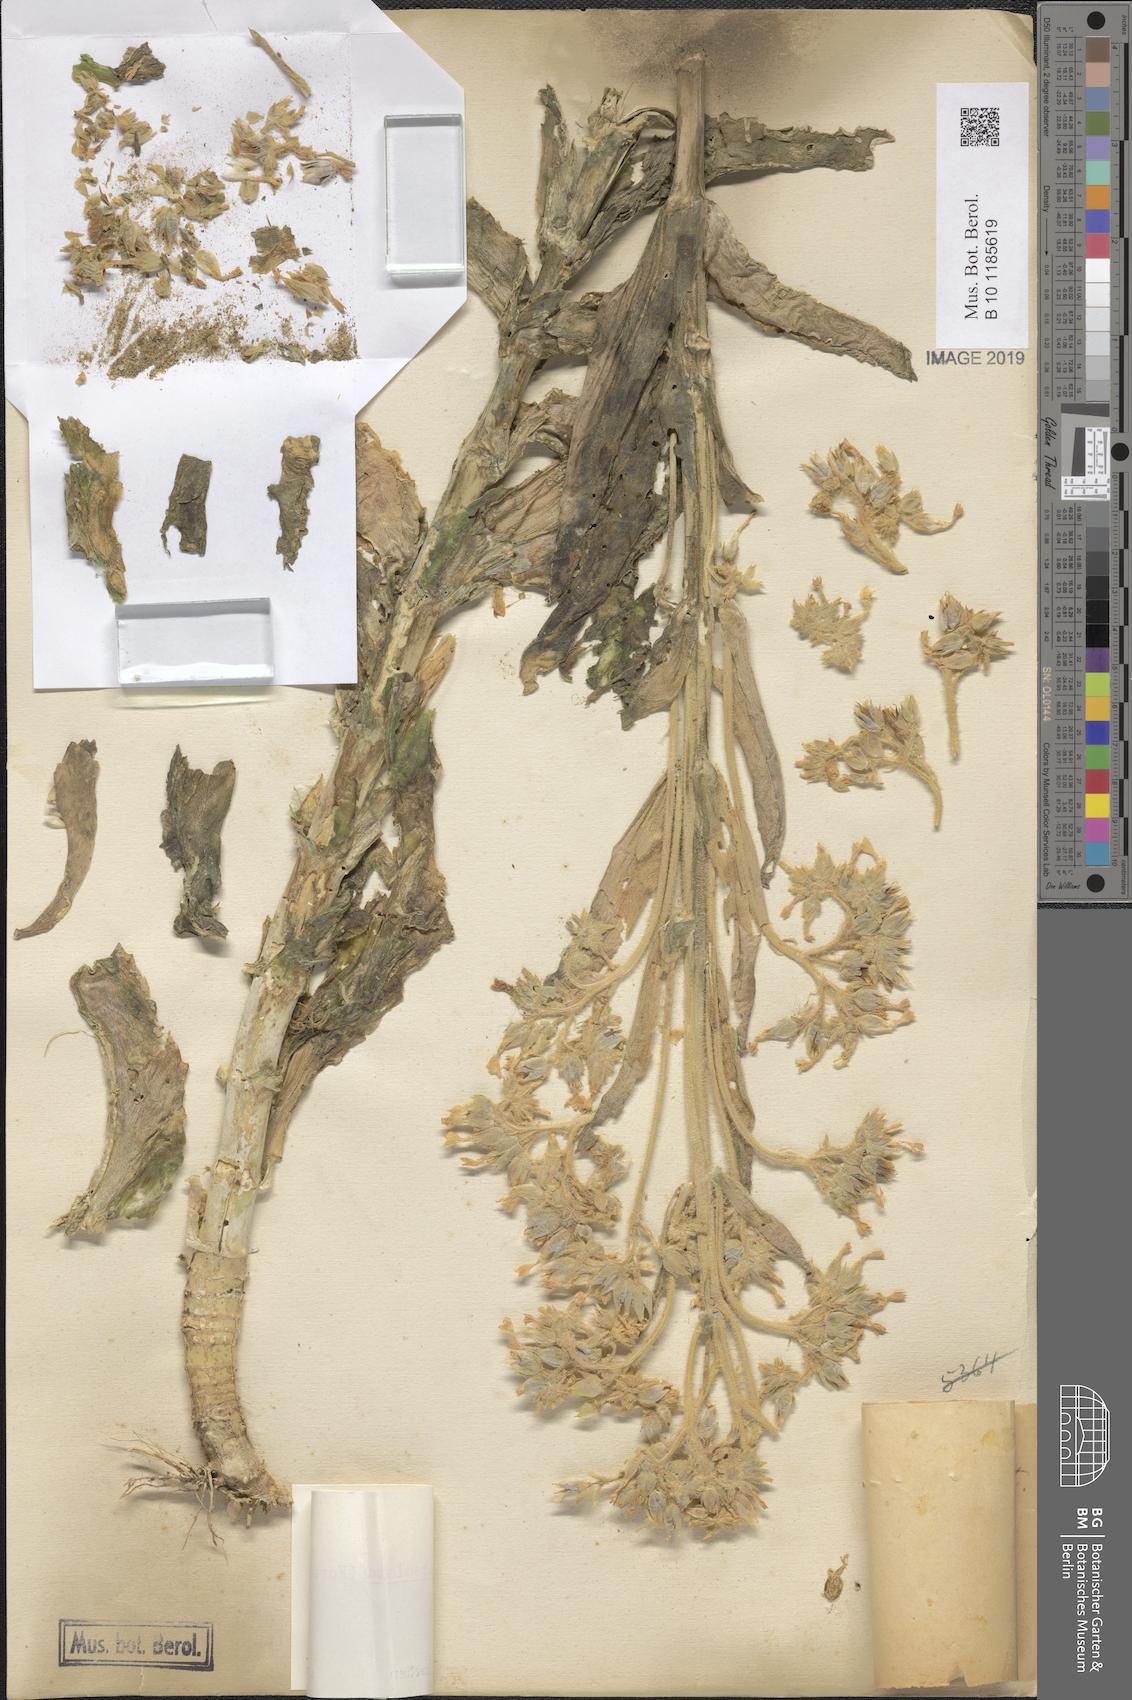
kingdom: Plantae
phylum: Tracheophyta
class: Magnoliopsida
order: Saxifragales
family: Crassulaceae
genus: Kalanchoe
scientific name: Kalanchoe lanceolata
